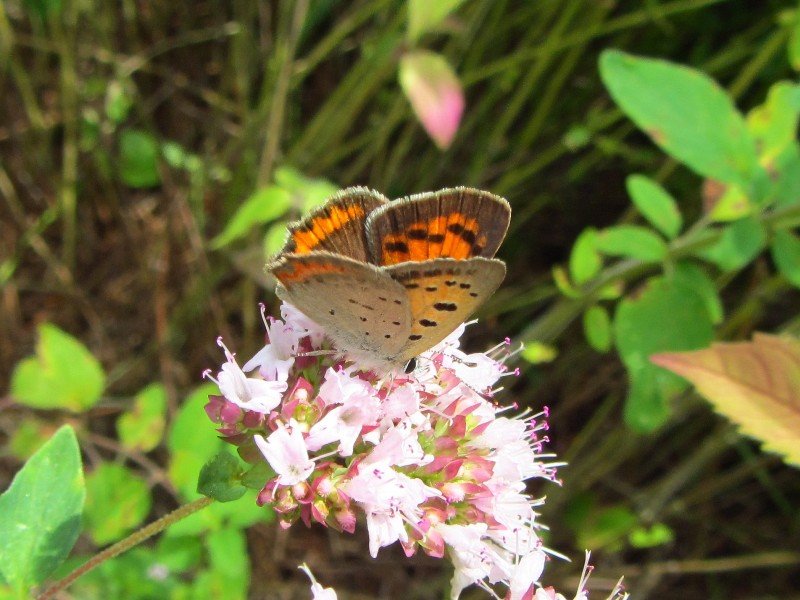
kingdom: Animalia
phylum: Arthropoda
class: Insecta
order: Lepidoptera
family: Lycaenidae
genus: Lycaena
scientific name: Lycaena phlaeas
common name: American Copper
